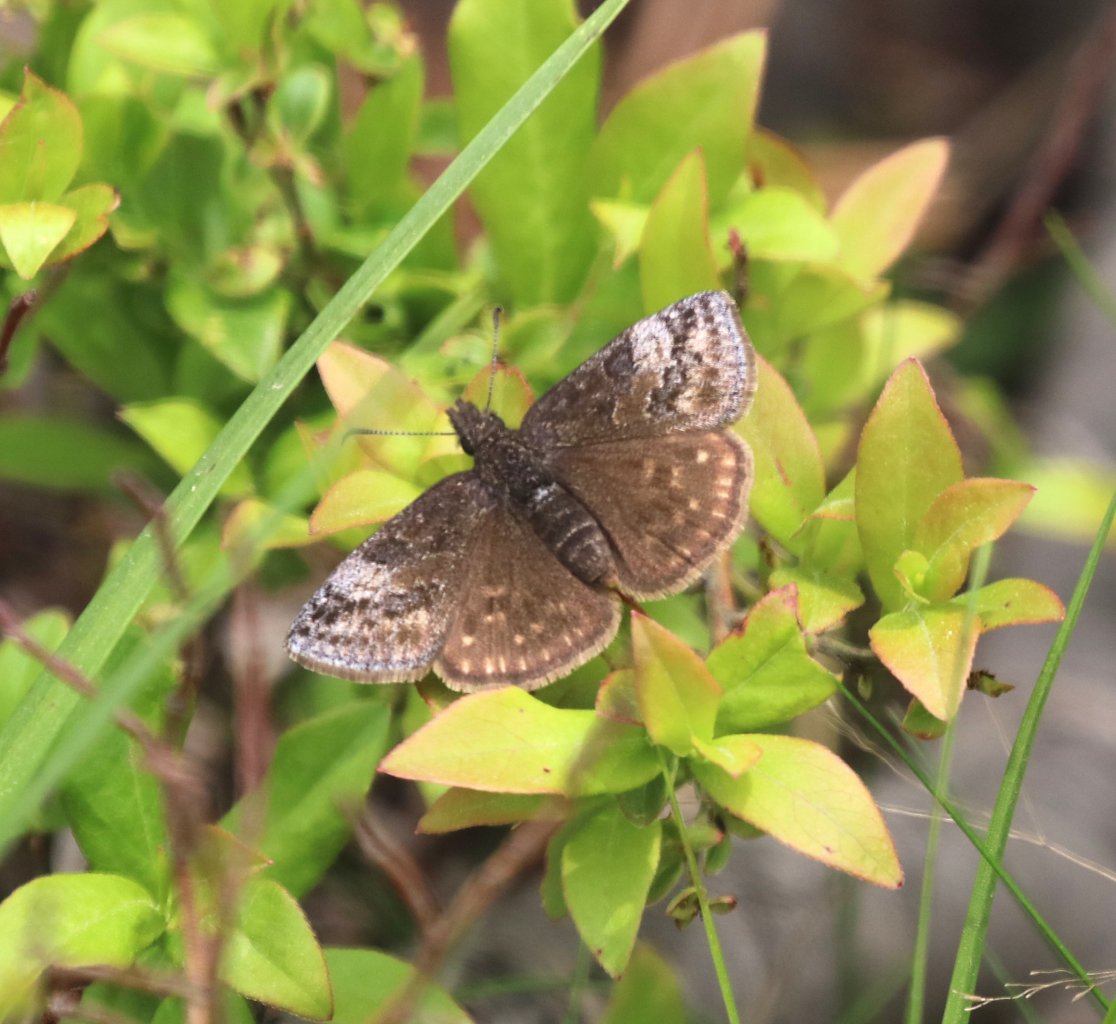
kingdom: Animalia
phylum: Arthropoda
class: Insecta
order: Lepidoptera
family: Hesperiidae
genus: Erynnis
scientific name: Erynnis icelus
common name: Dreamy Duskywing
